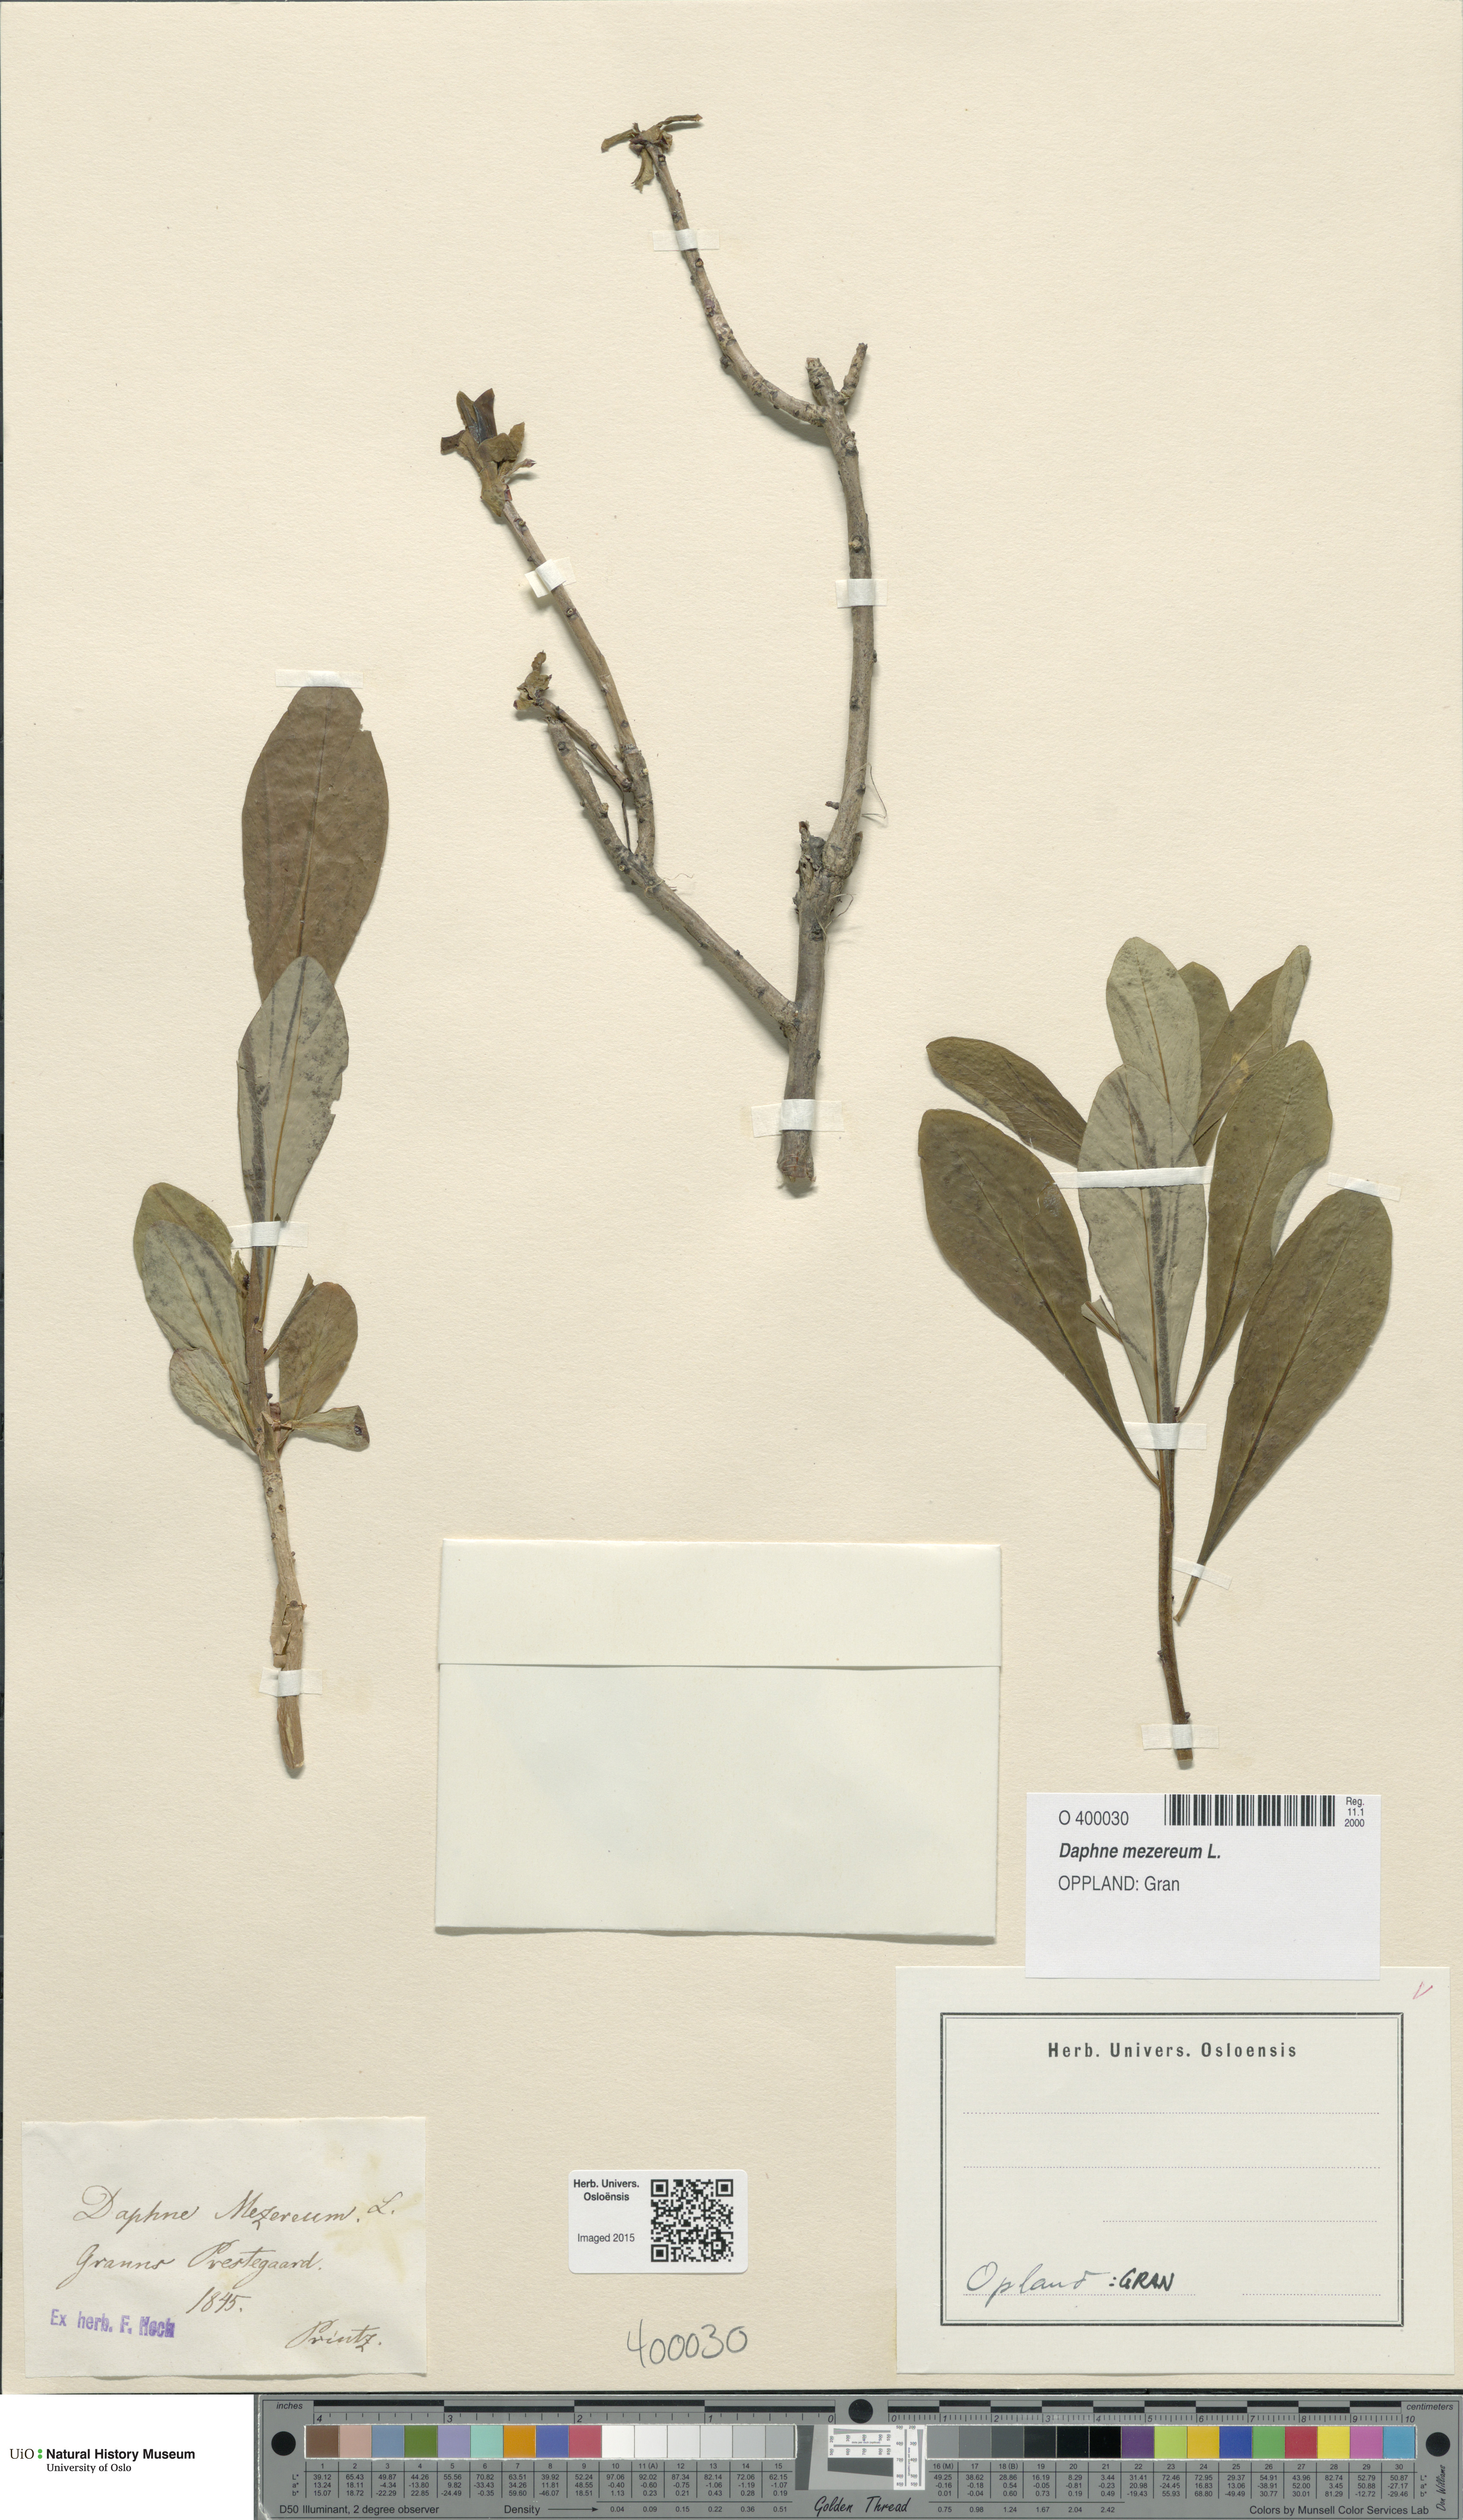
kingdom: Plantae
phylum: Tracheophyta
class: Magnoliopsida
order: Malvales
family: Thymelaeaceae
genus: Daphne
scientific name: Daphne mezereum
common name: Mezereon
